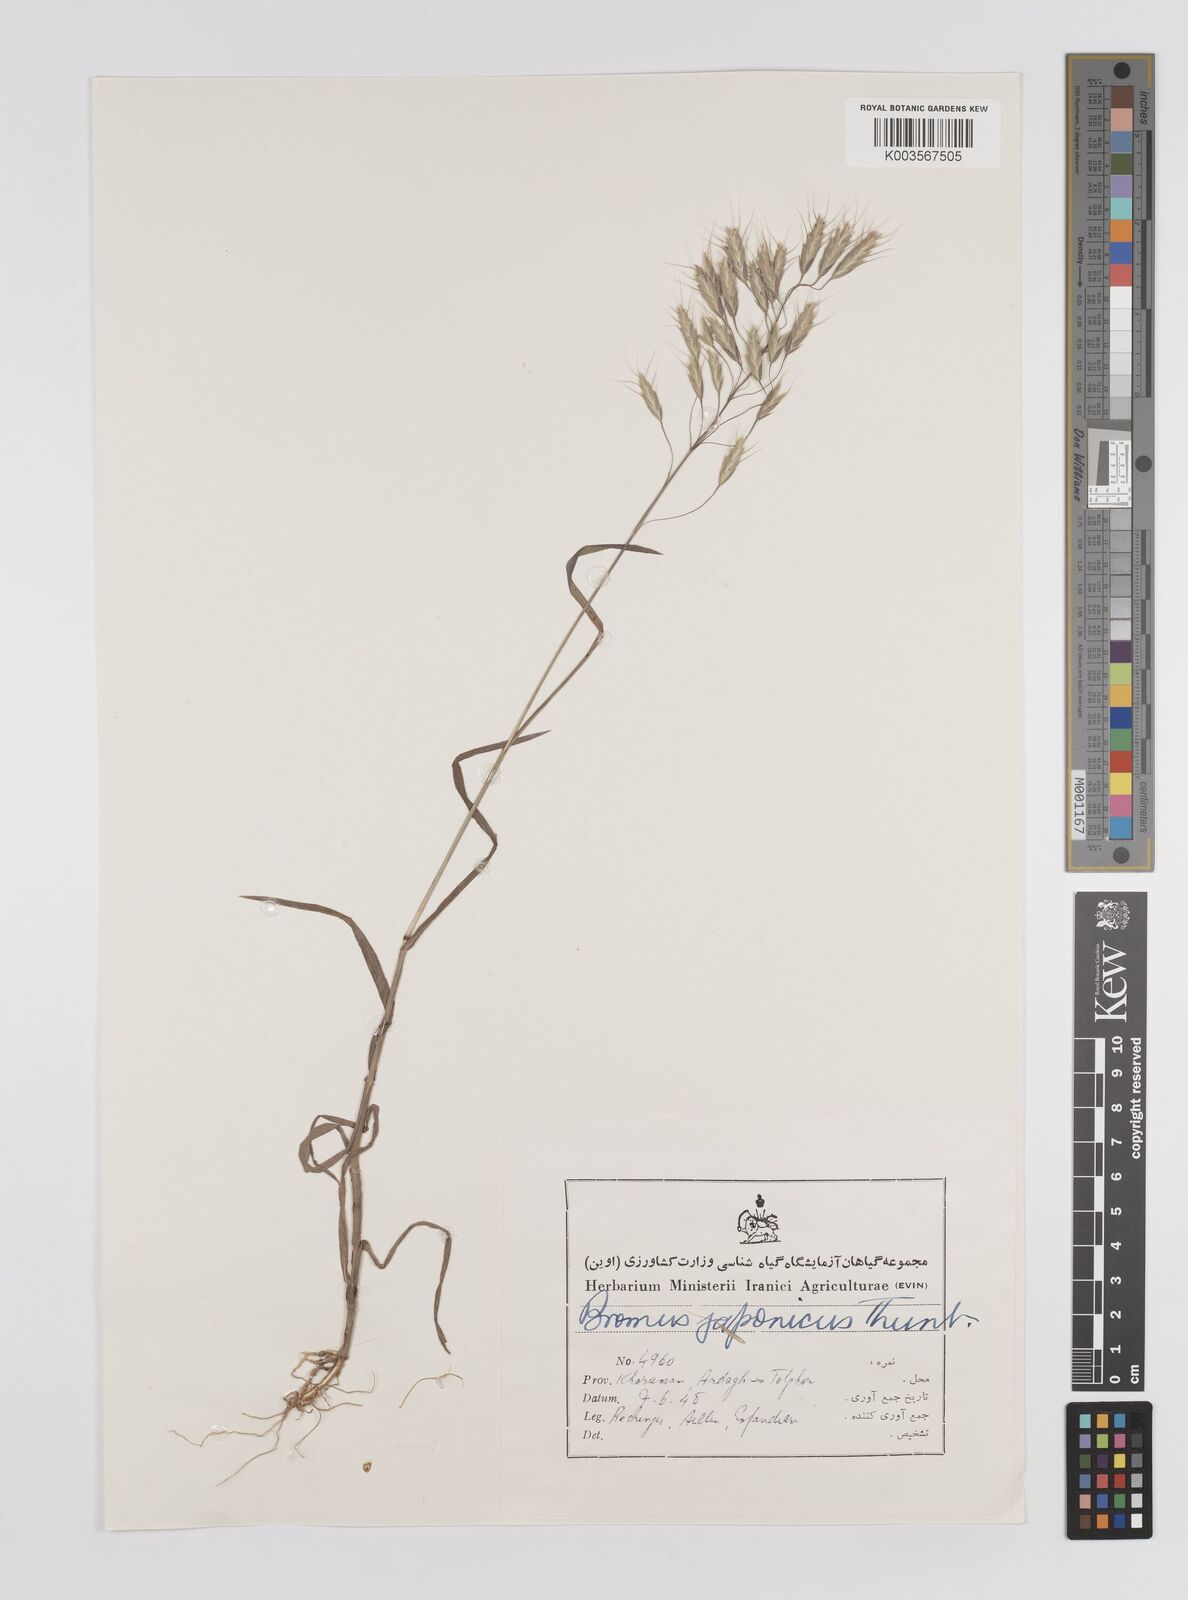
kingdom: Plantae
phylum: Tracheophyta
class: Liliopsida
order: Poales
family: Poaceae
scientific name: Poaceae
